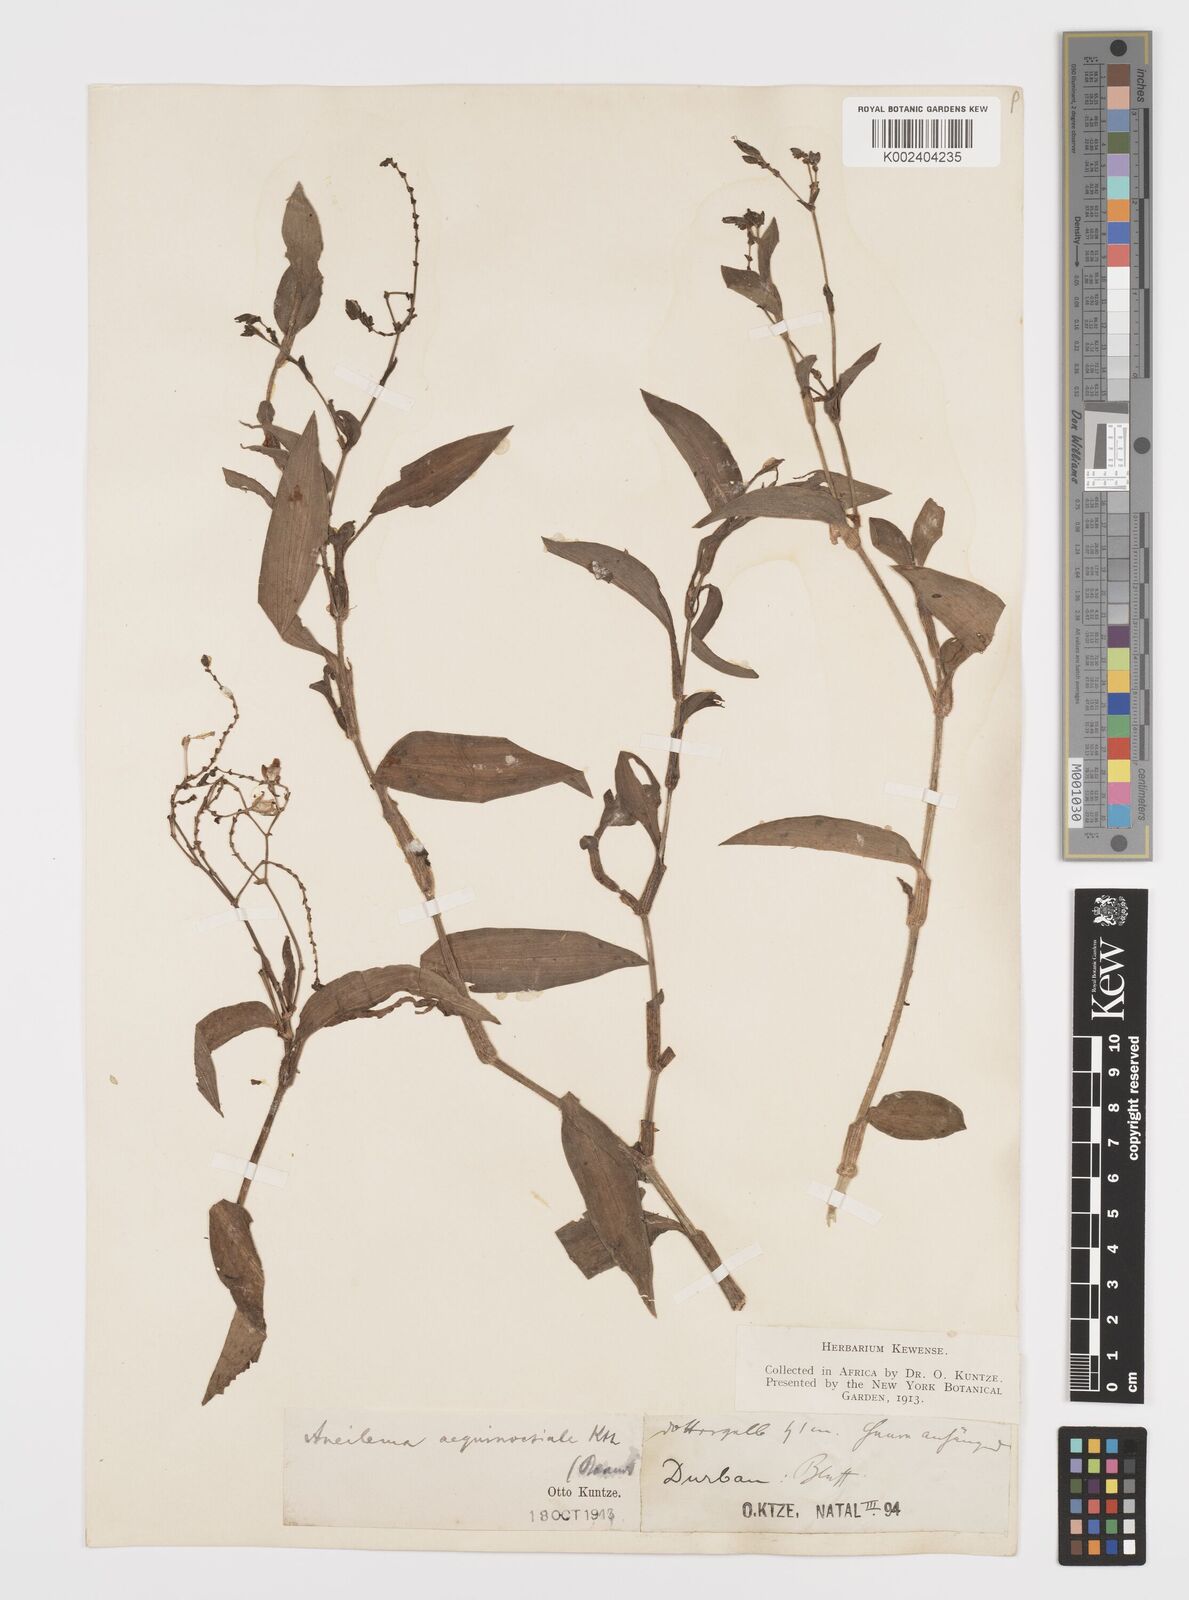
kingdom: Plantae
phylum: Tracheophyta
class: Liliopsida
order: Commelinales
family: Commelinaceae
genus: Aneilema
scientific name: Aneilema aequinoctiale
